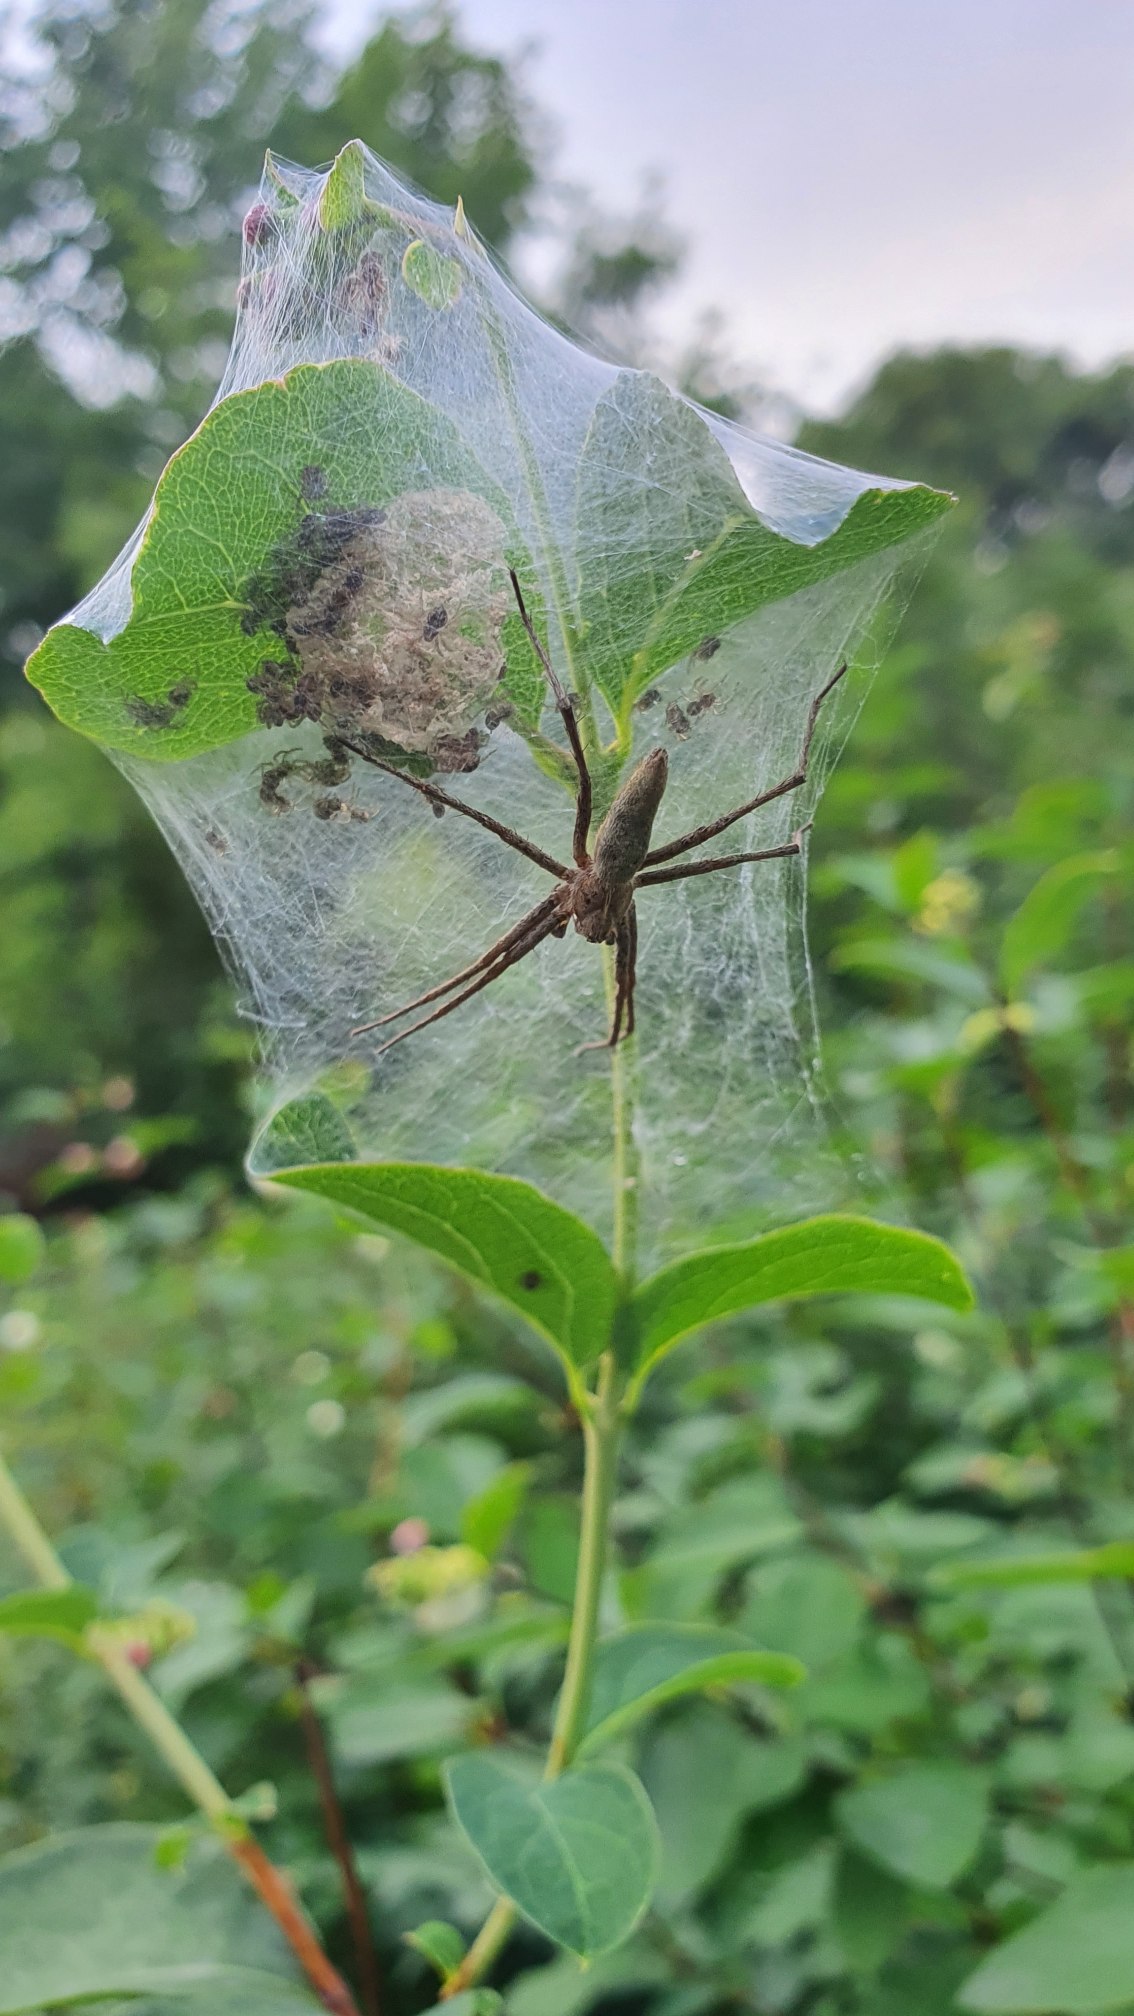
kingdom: Animalia
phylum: Arthropoda
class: Arachnida
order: Araneae
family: Pisauridae
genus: Pisaura
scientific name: Pisaura mirabilis
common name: Almindelig rovedderkop
